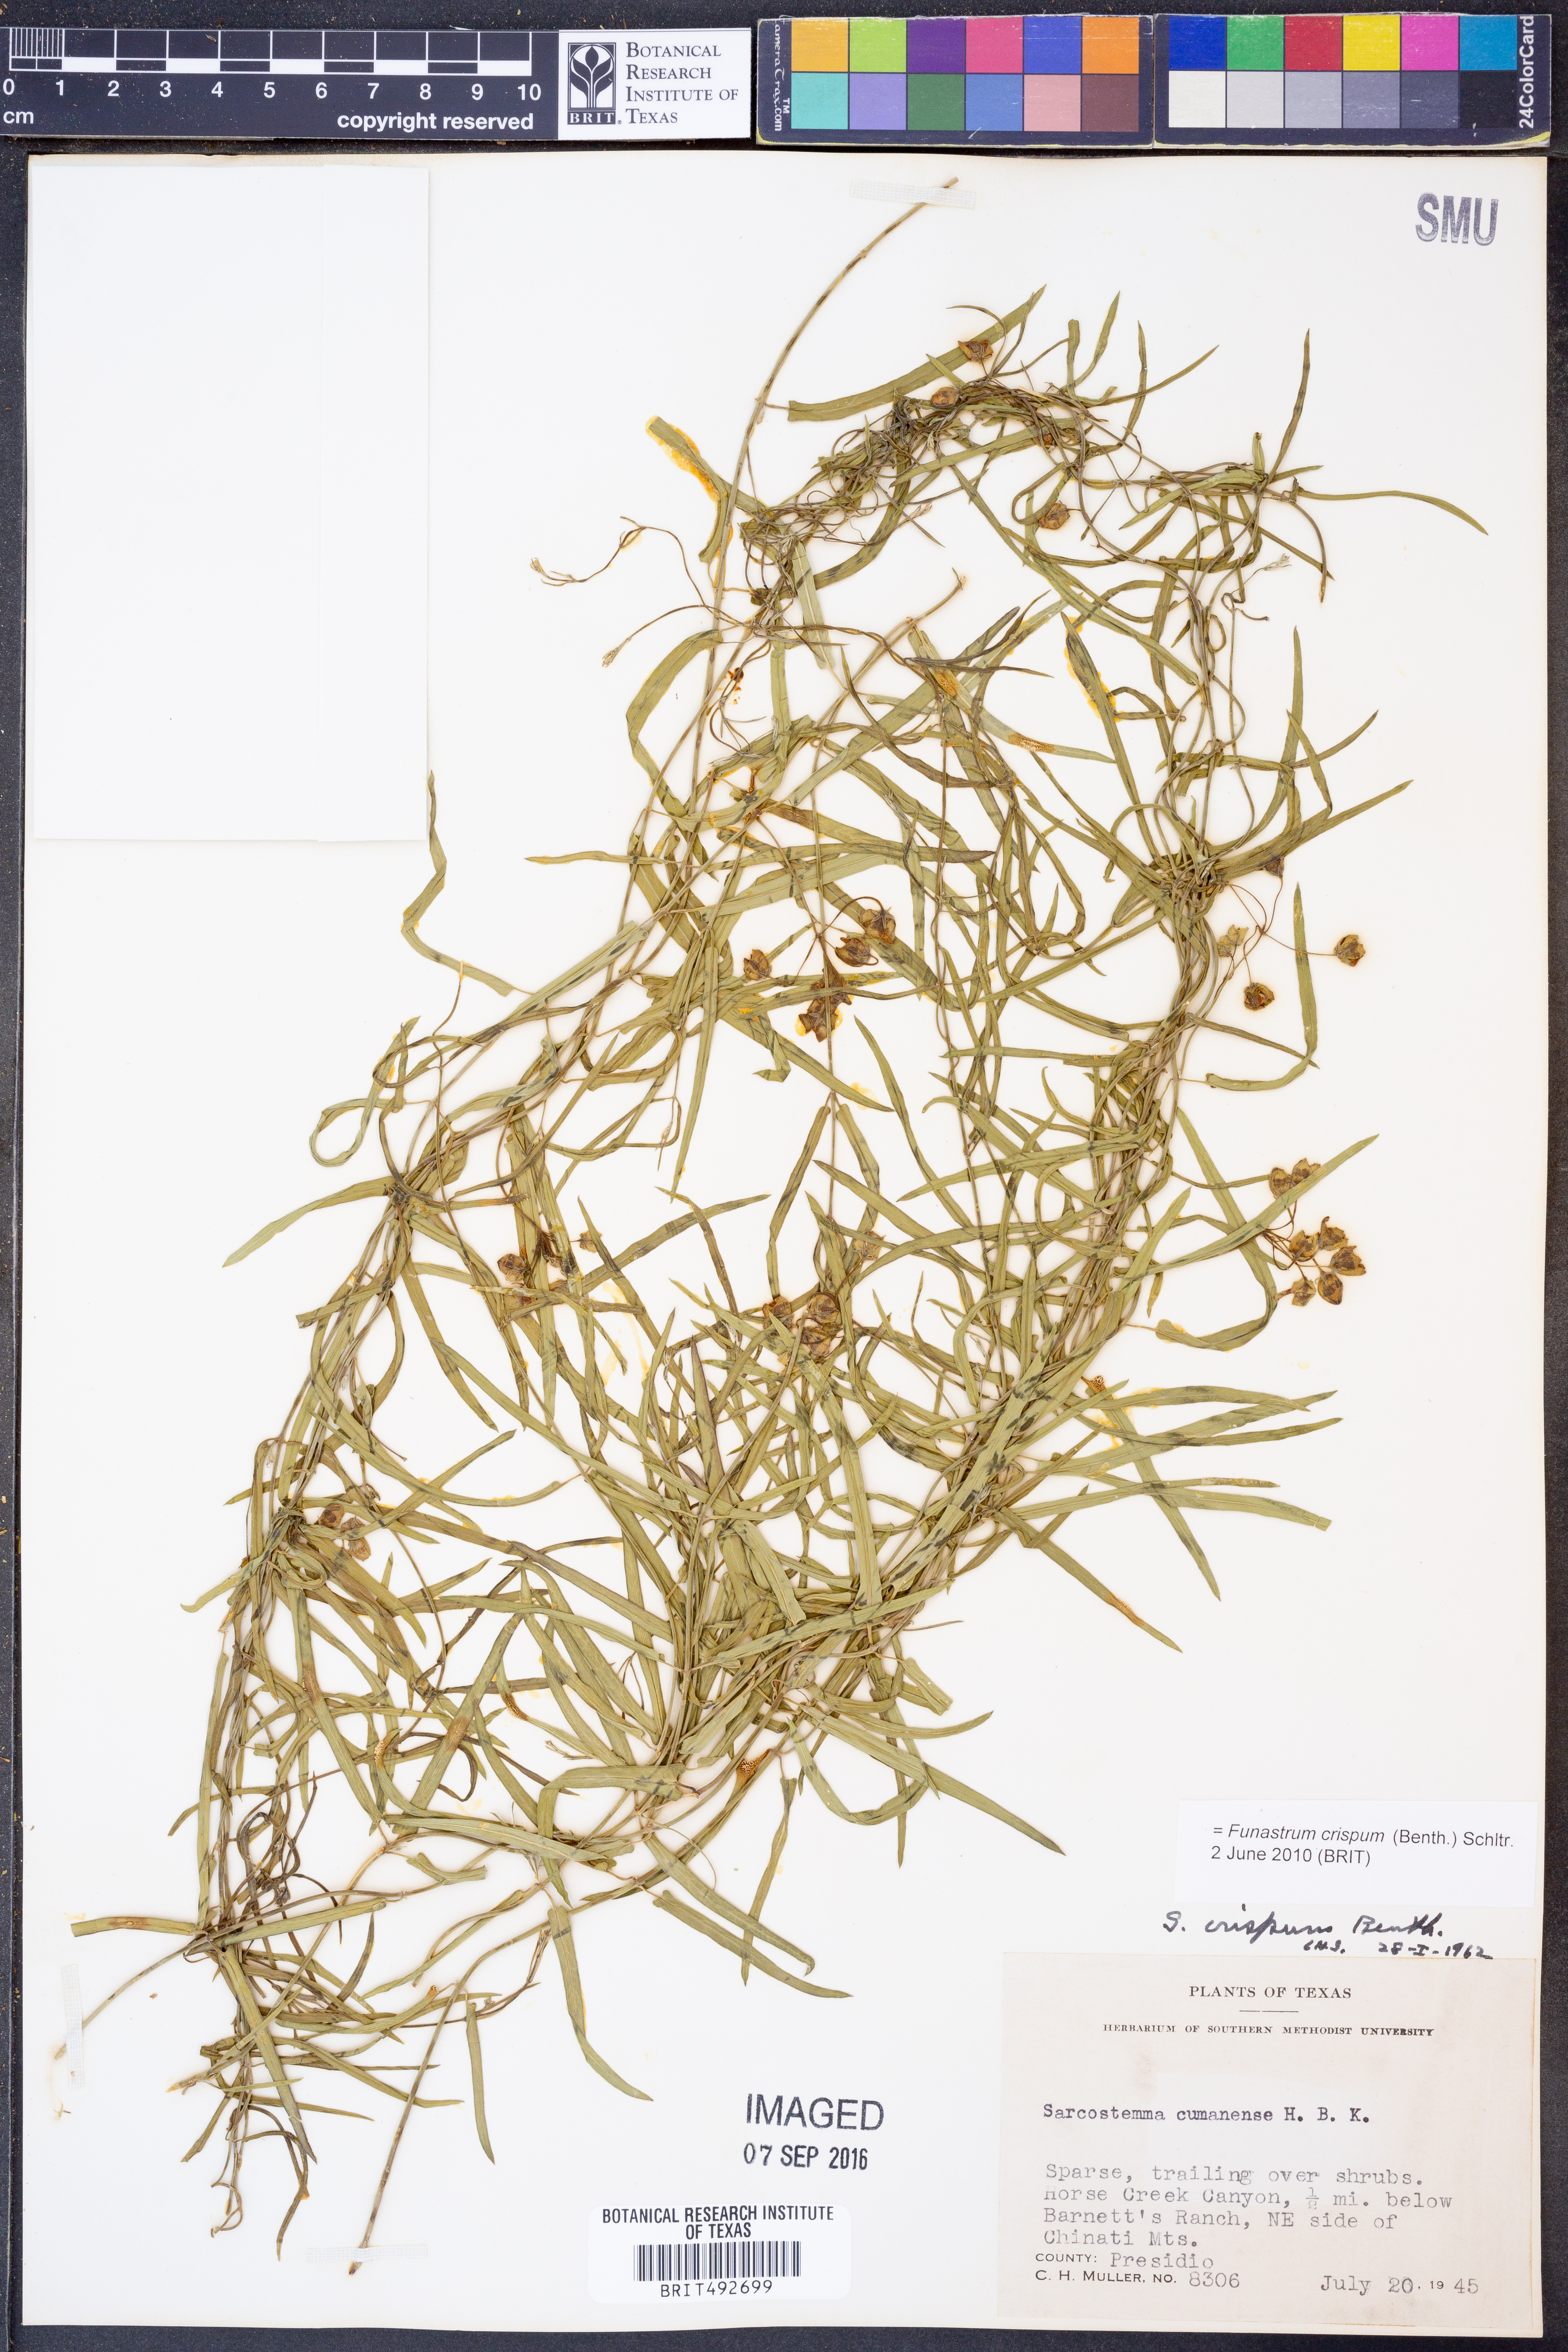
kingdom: Plantae
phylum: Tracheophyta
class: Magnoliopsida
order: Gentianales
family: Apocynaceae
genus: Funastrum
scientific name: Funastrum crispum
